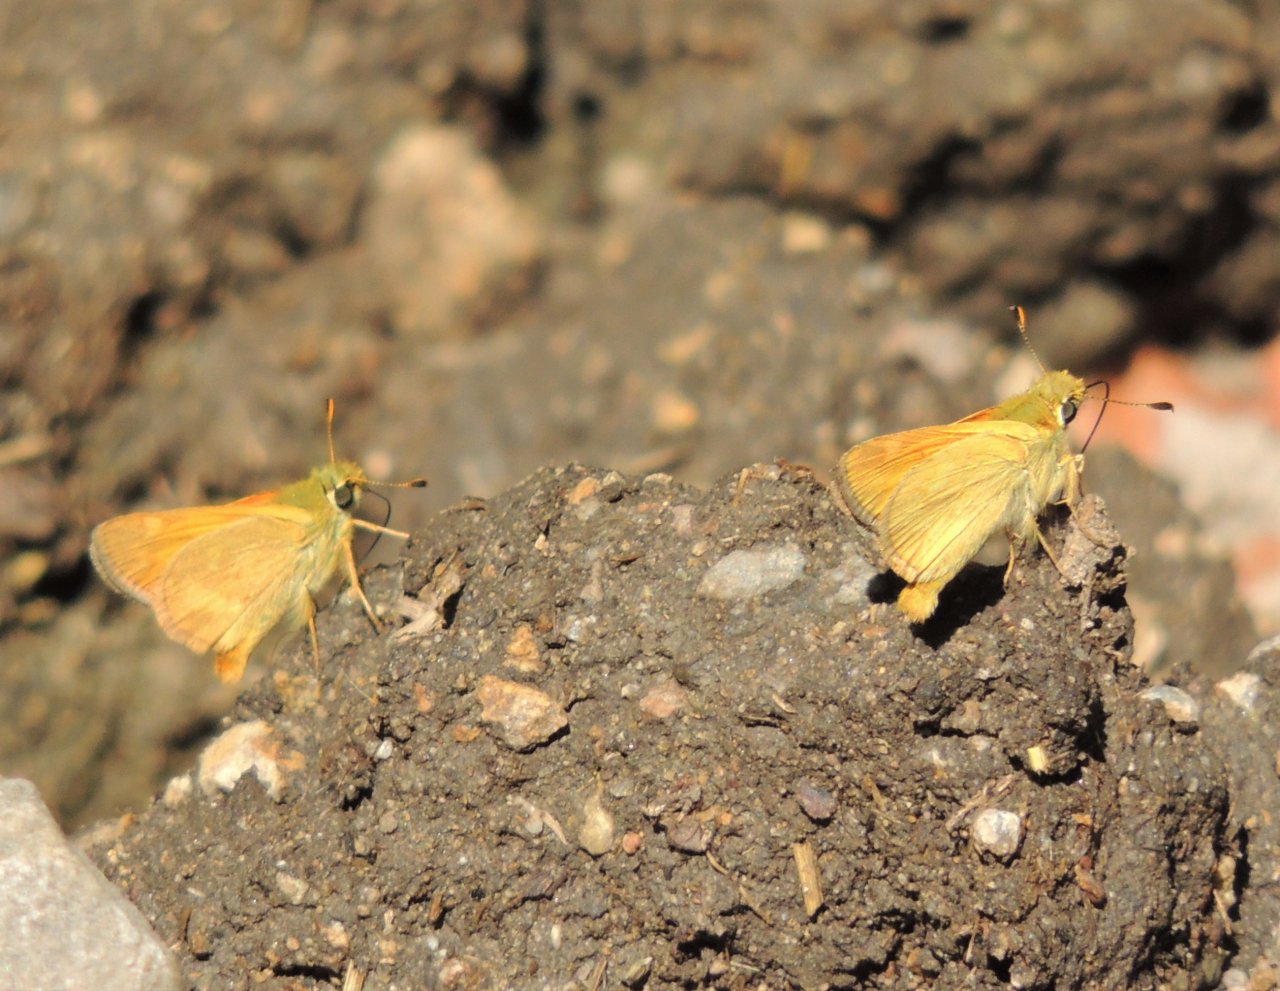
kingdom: Animalia
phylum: Arthropoda
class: Insecta
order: Lepidoptera
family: Hesperiidae
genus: Ochlodes
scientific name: Ochlodes sylvanoides
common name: Woodland Skipper
